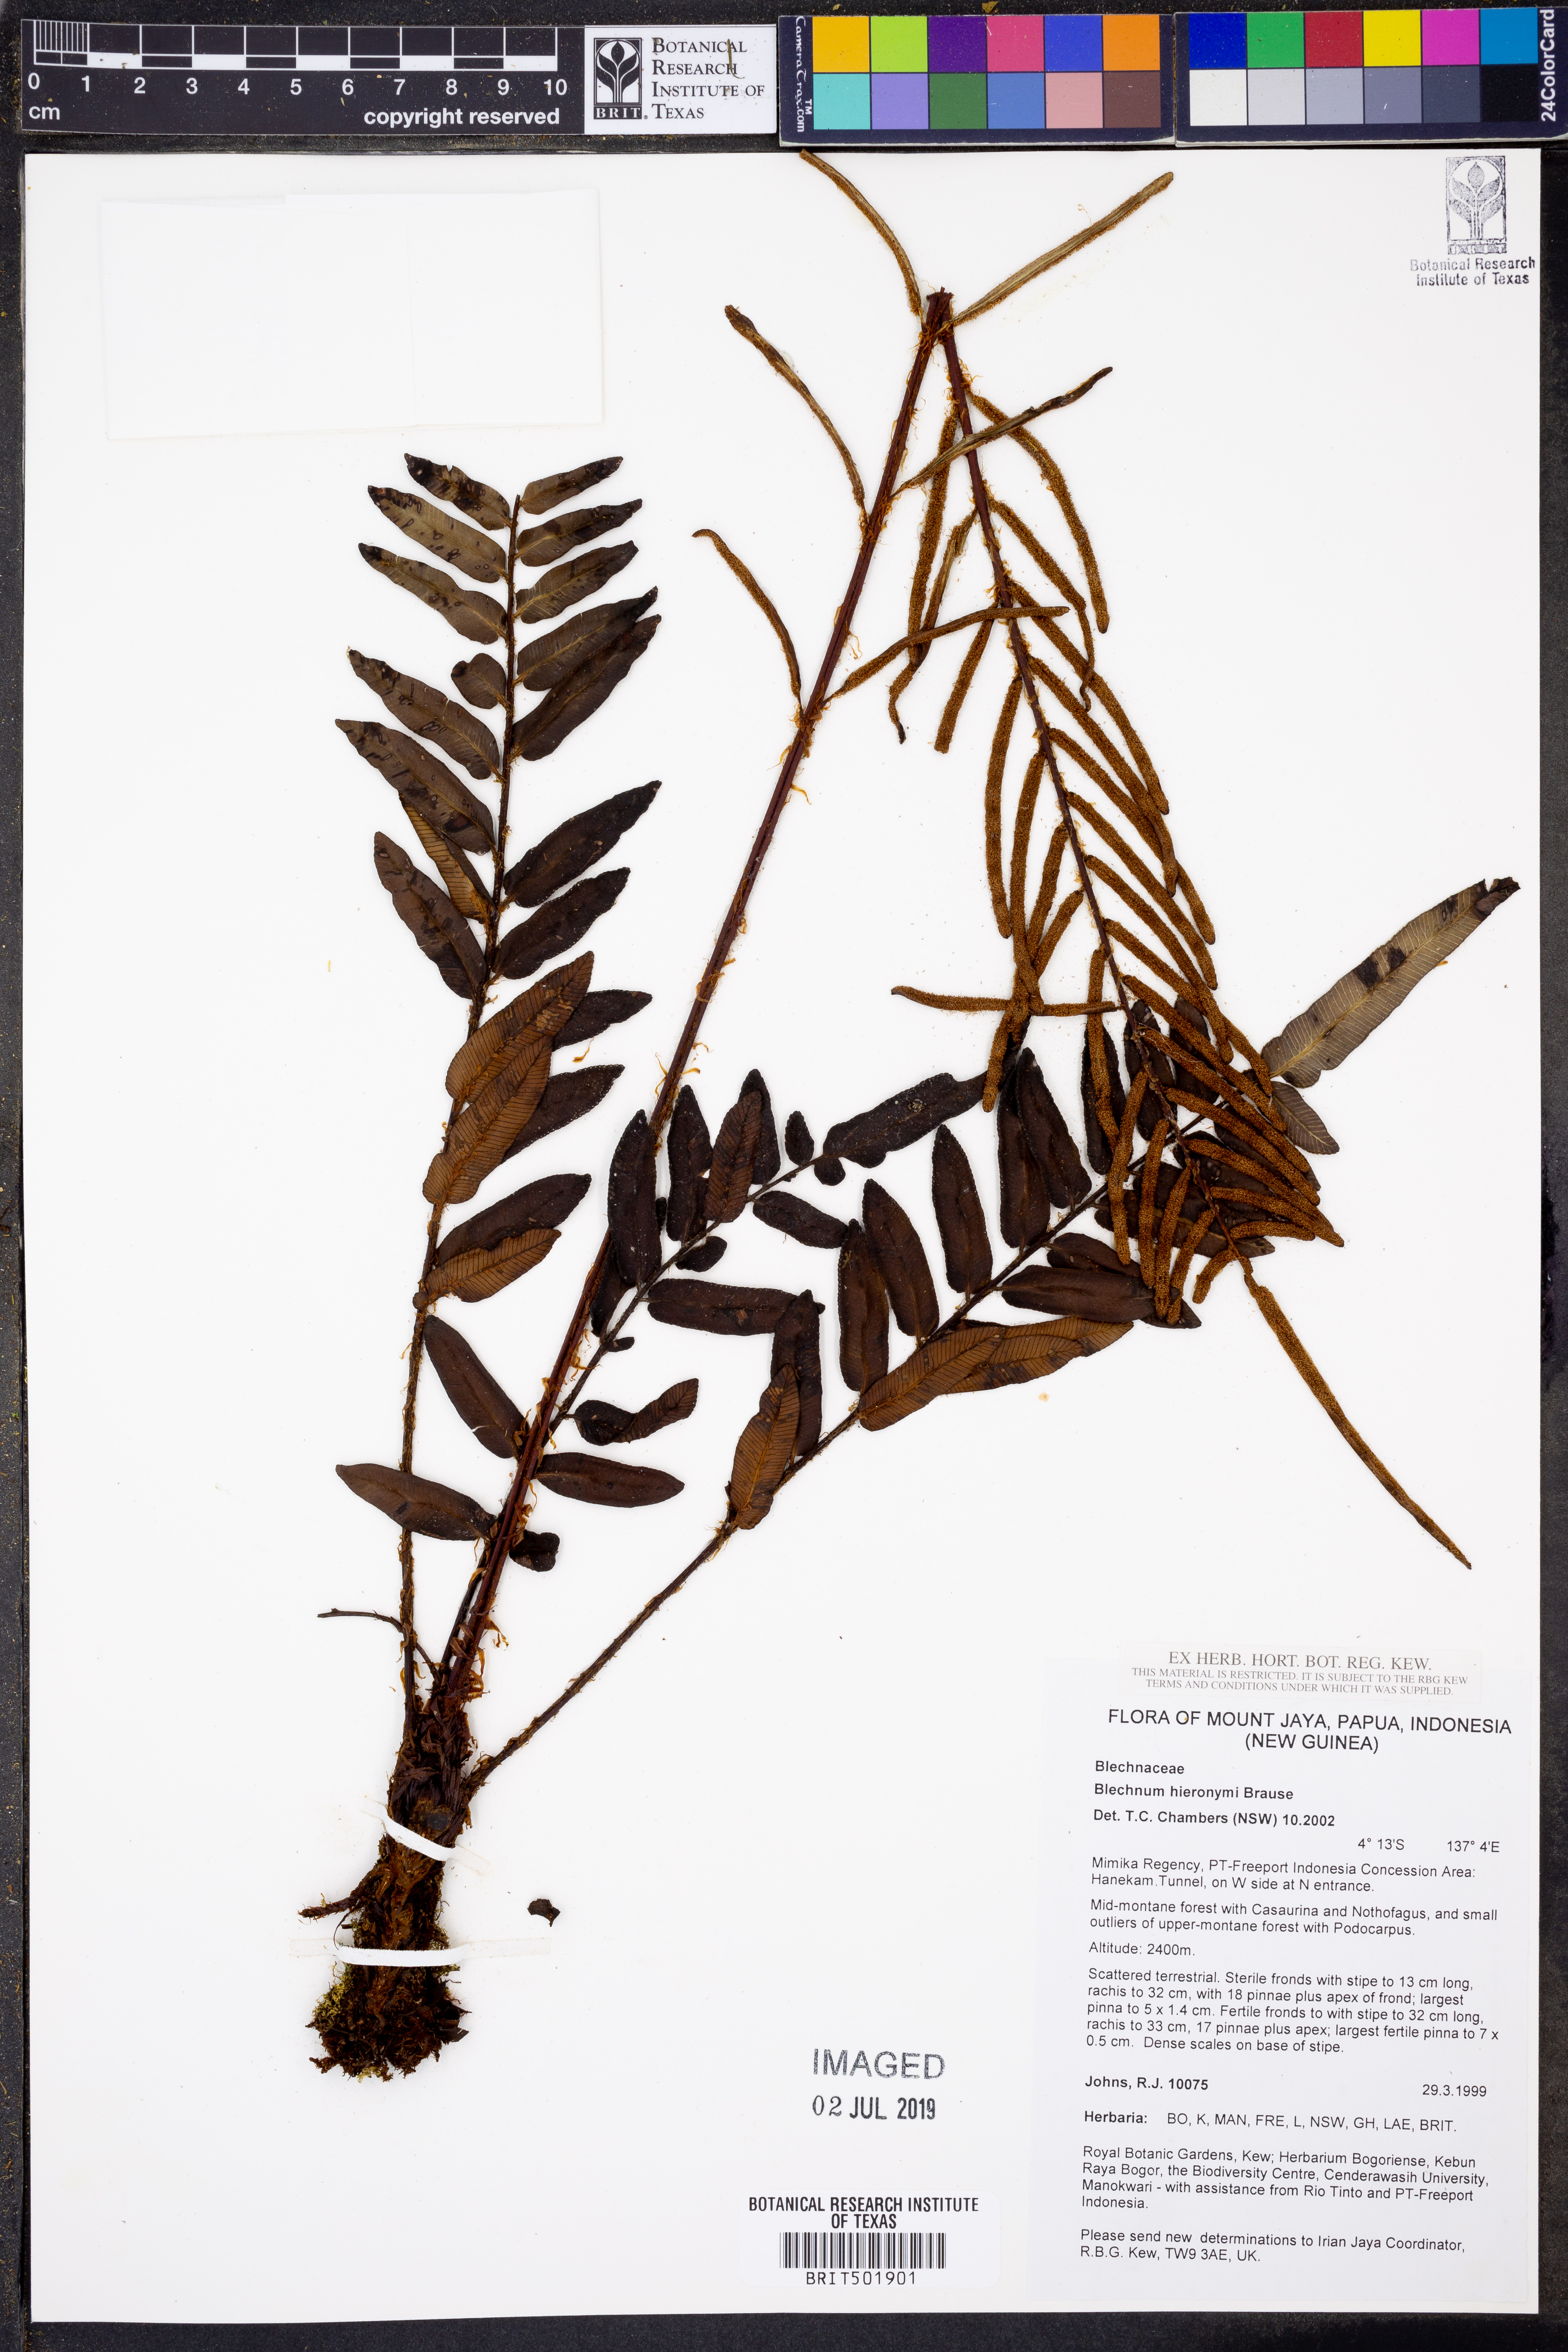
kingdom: Plantae
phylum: Tracheophyta
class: Polypodiopsida
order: Polypodiales
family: Blechnaceae
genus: Parablechnum
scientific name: Parablechnum hieronymi
